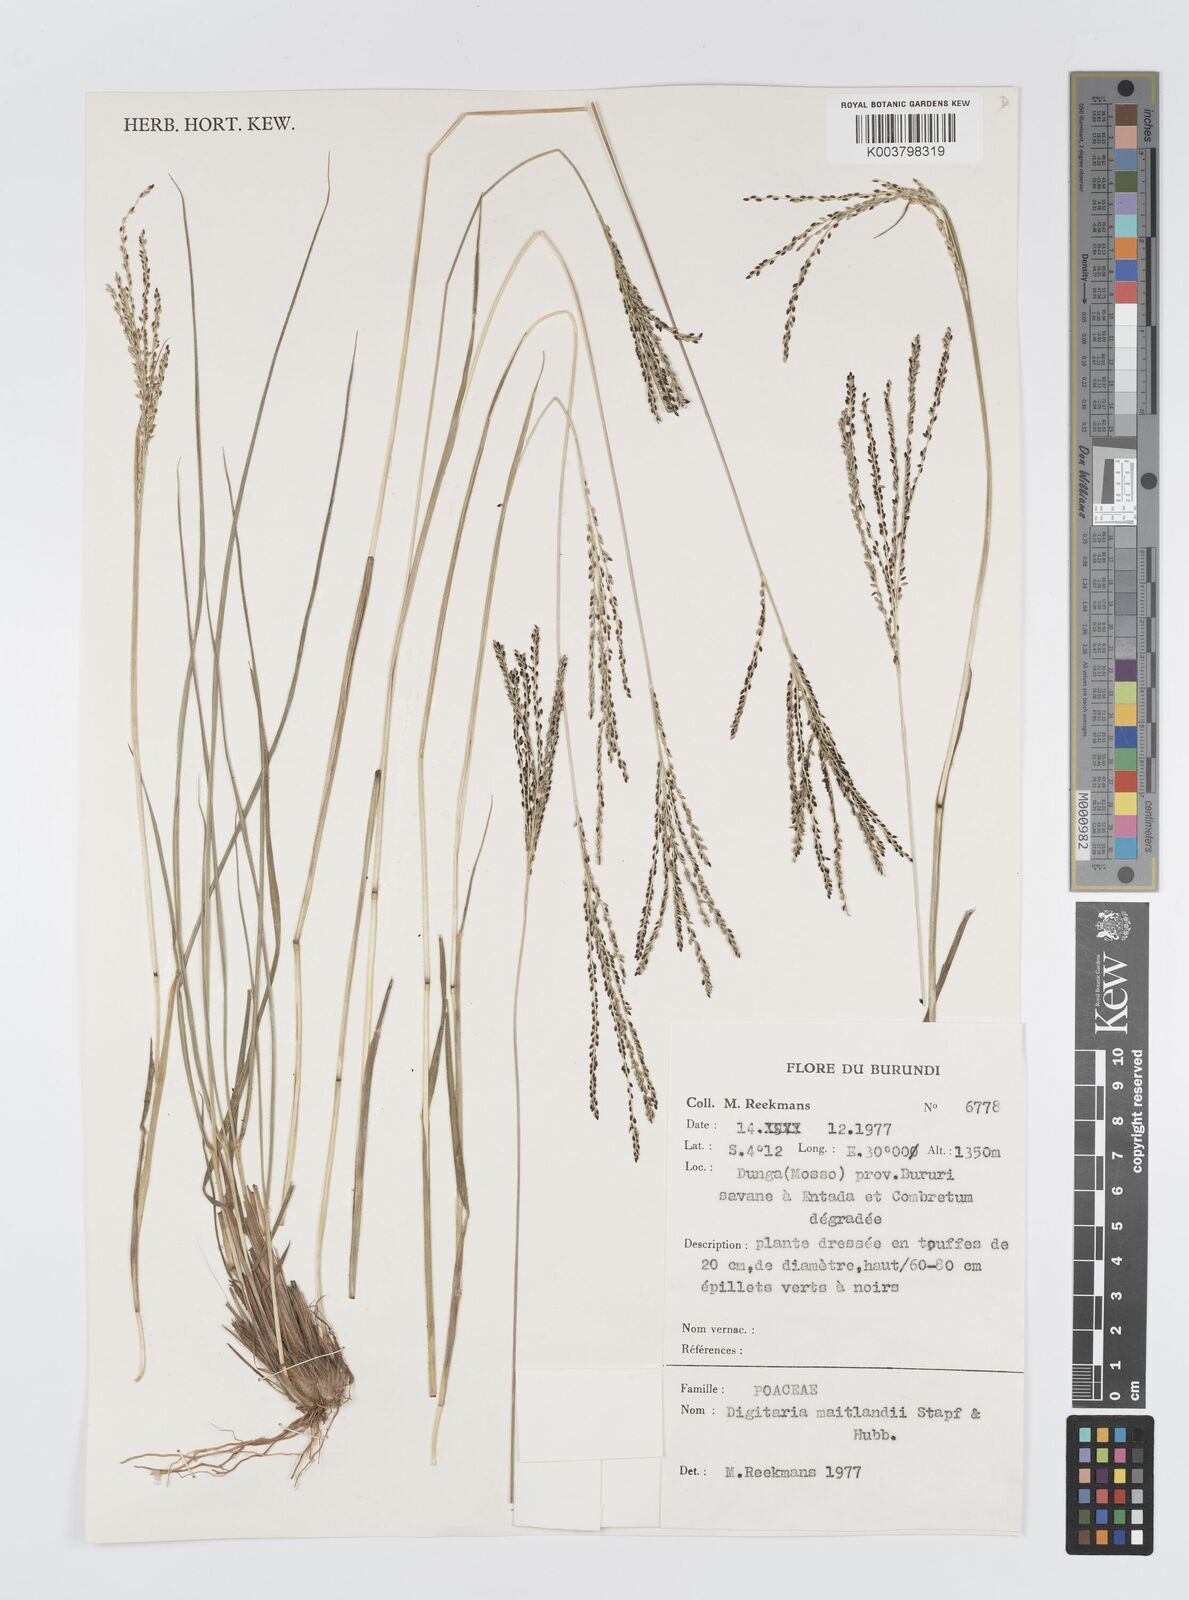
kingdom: Plantae
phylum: Tracheophyta
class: Liliopsida
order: Poales
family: Poaceae
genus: Digitaria
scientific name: Digitaria maitlandii
